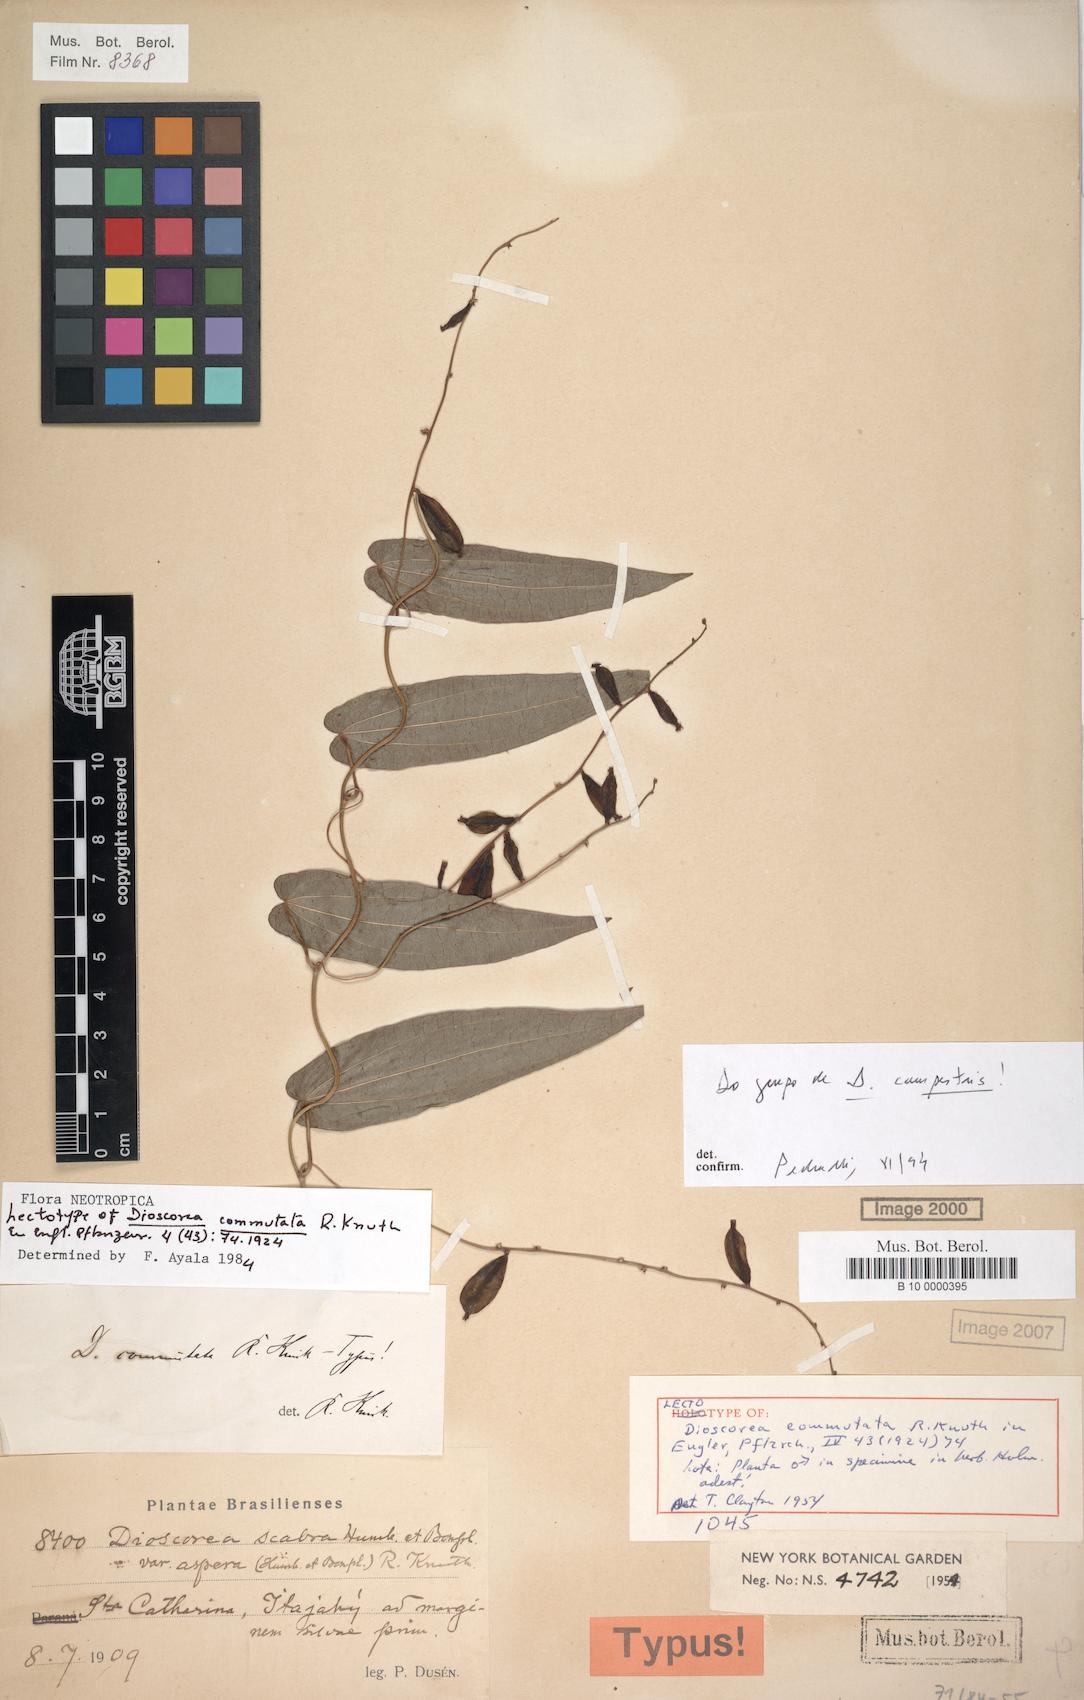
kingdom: Plantae
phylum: Tracheophyta
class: Liliopsida
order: Dioscoreales
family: Dioscoreaceae
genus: Dioscorea
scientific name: Dioscorea campestris
